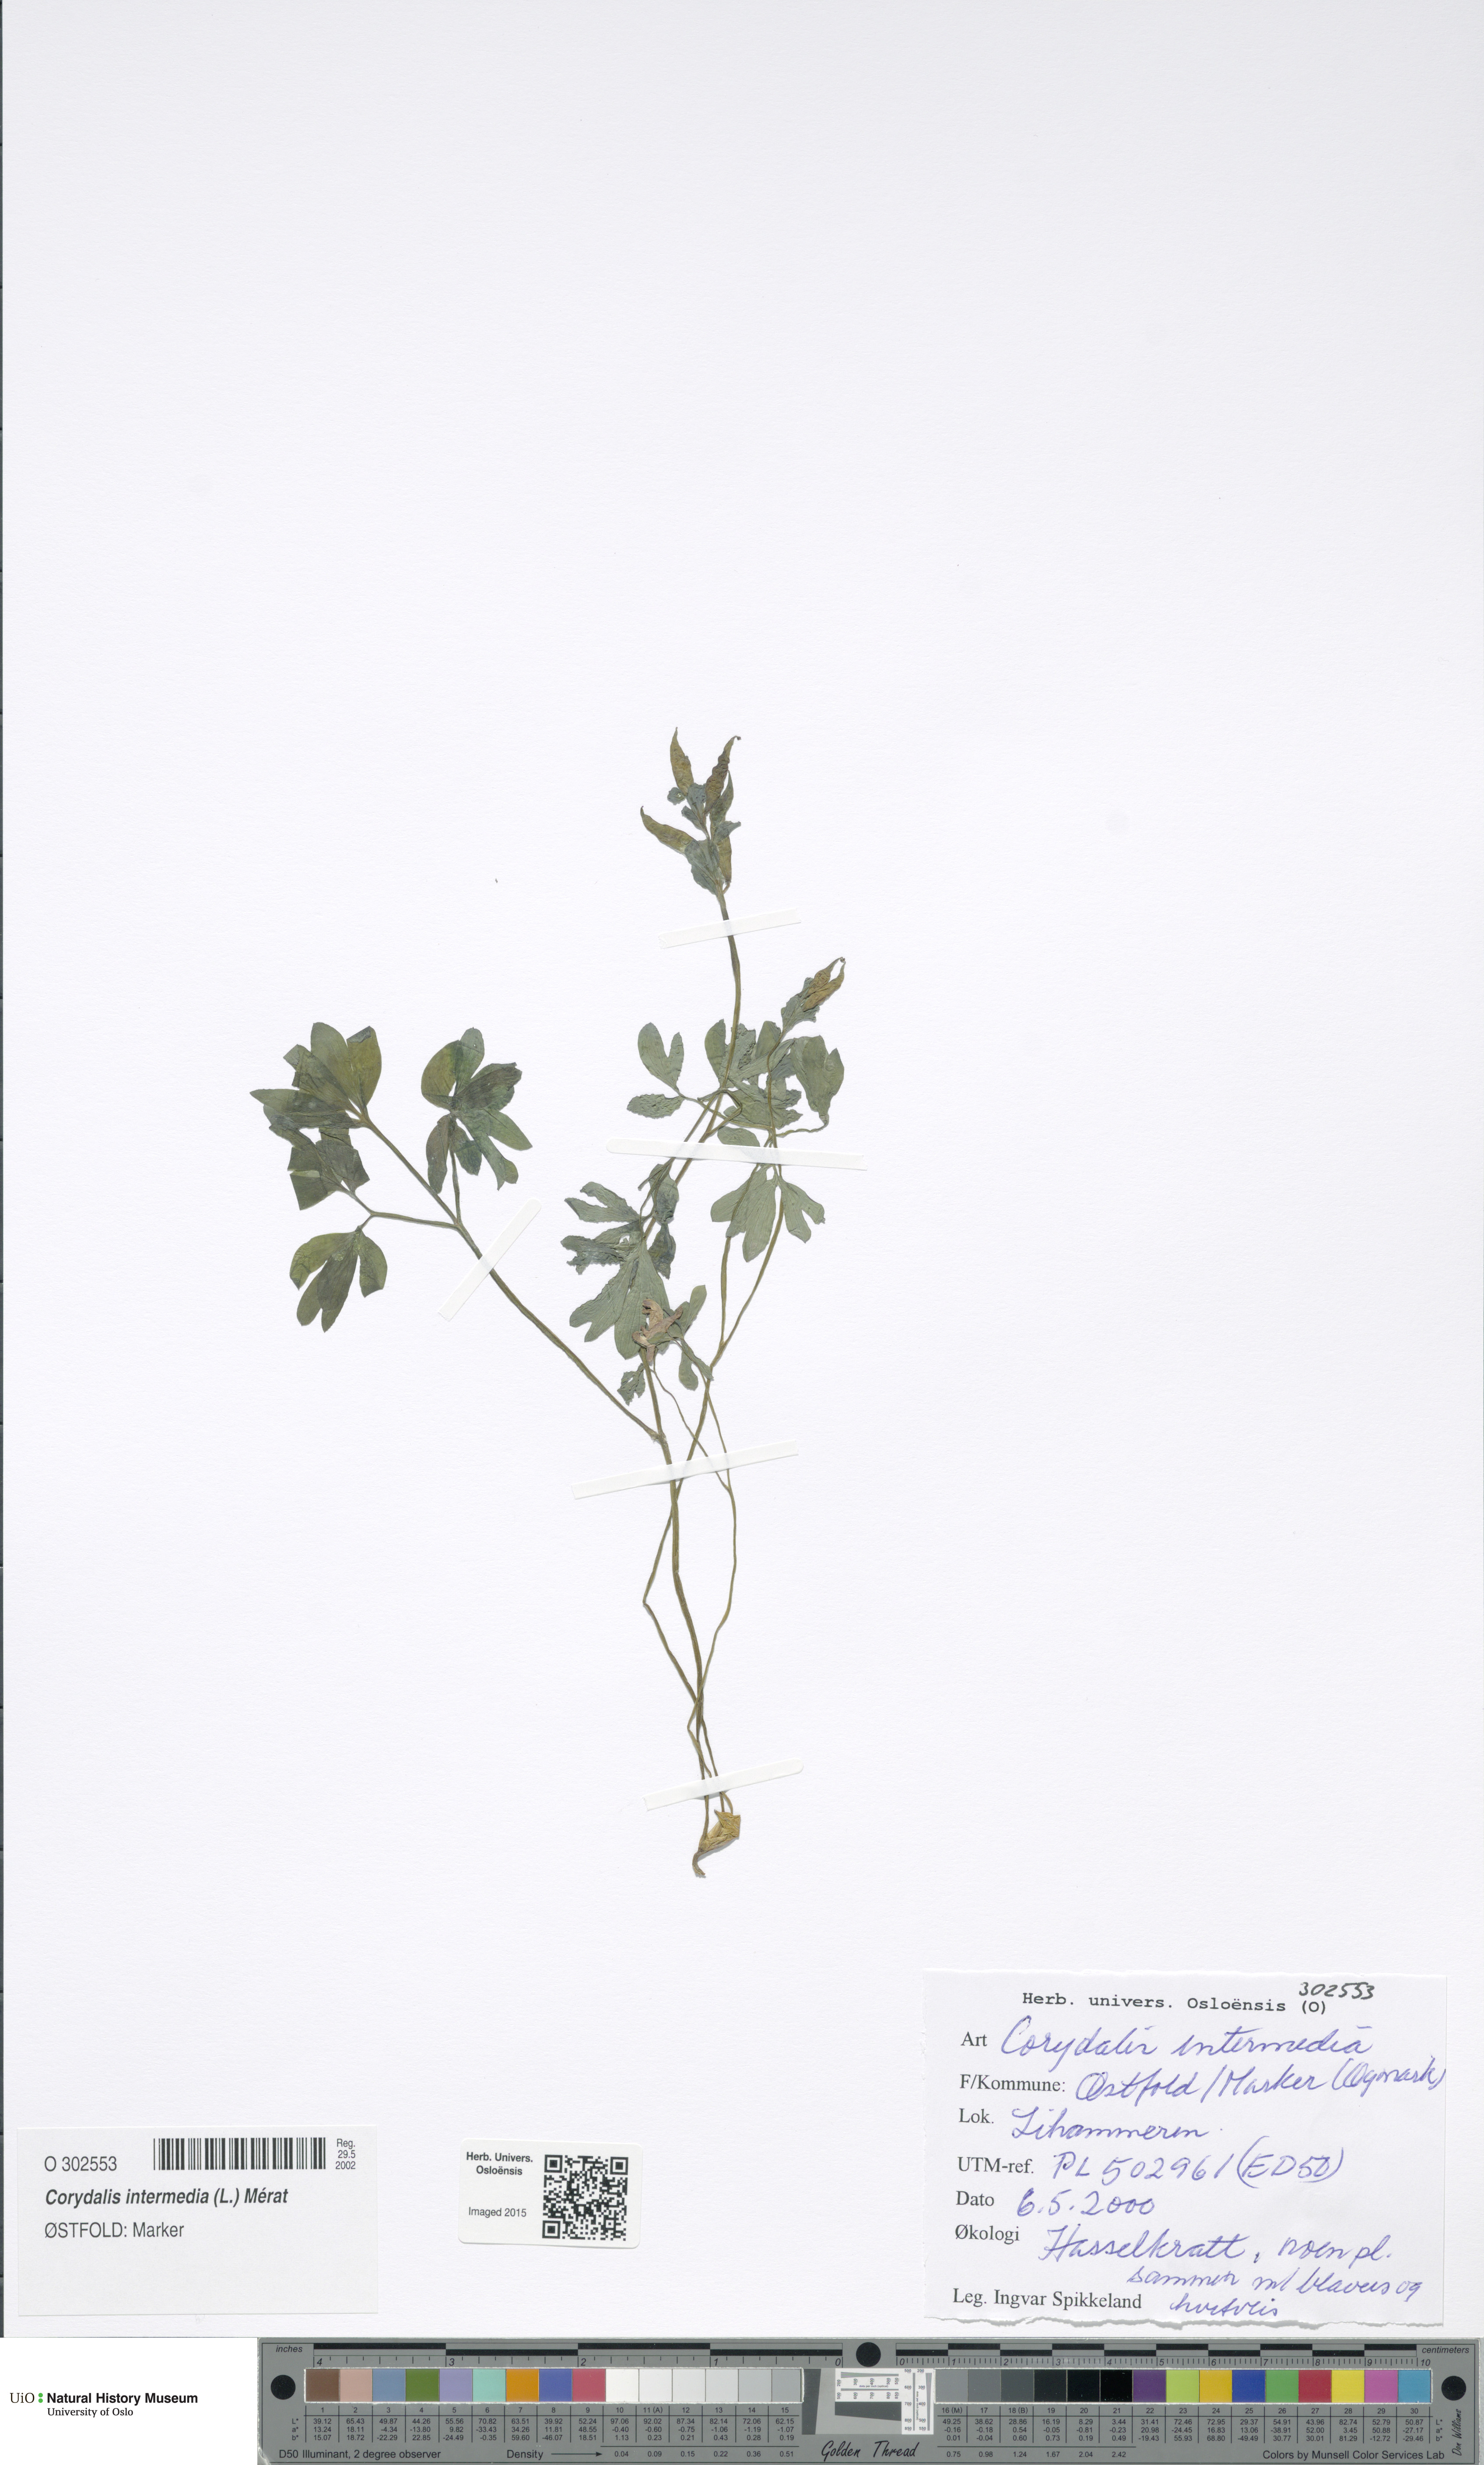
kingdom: Plantae
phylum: Tracheophyta
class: Magnoliopsida
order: Ranunculales
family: Papaveraceae
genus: Corydalis
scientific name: Corydalis intermedia
